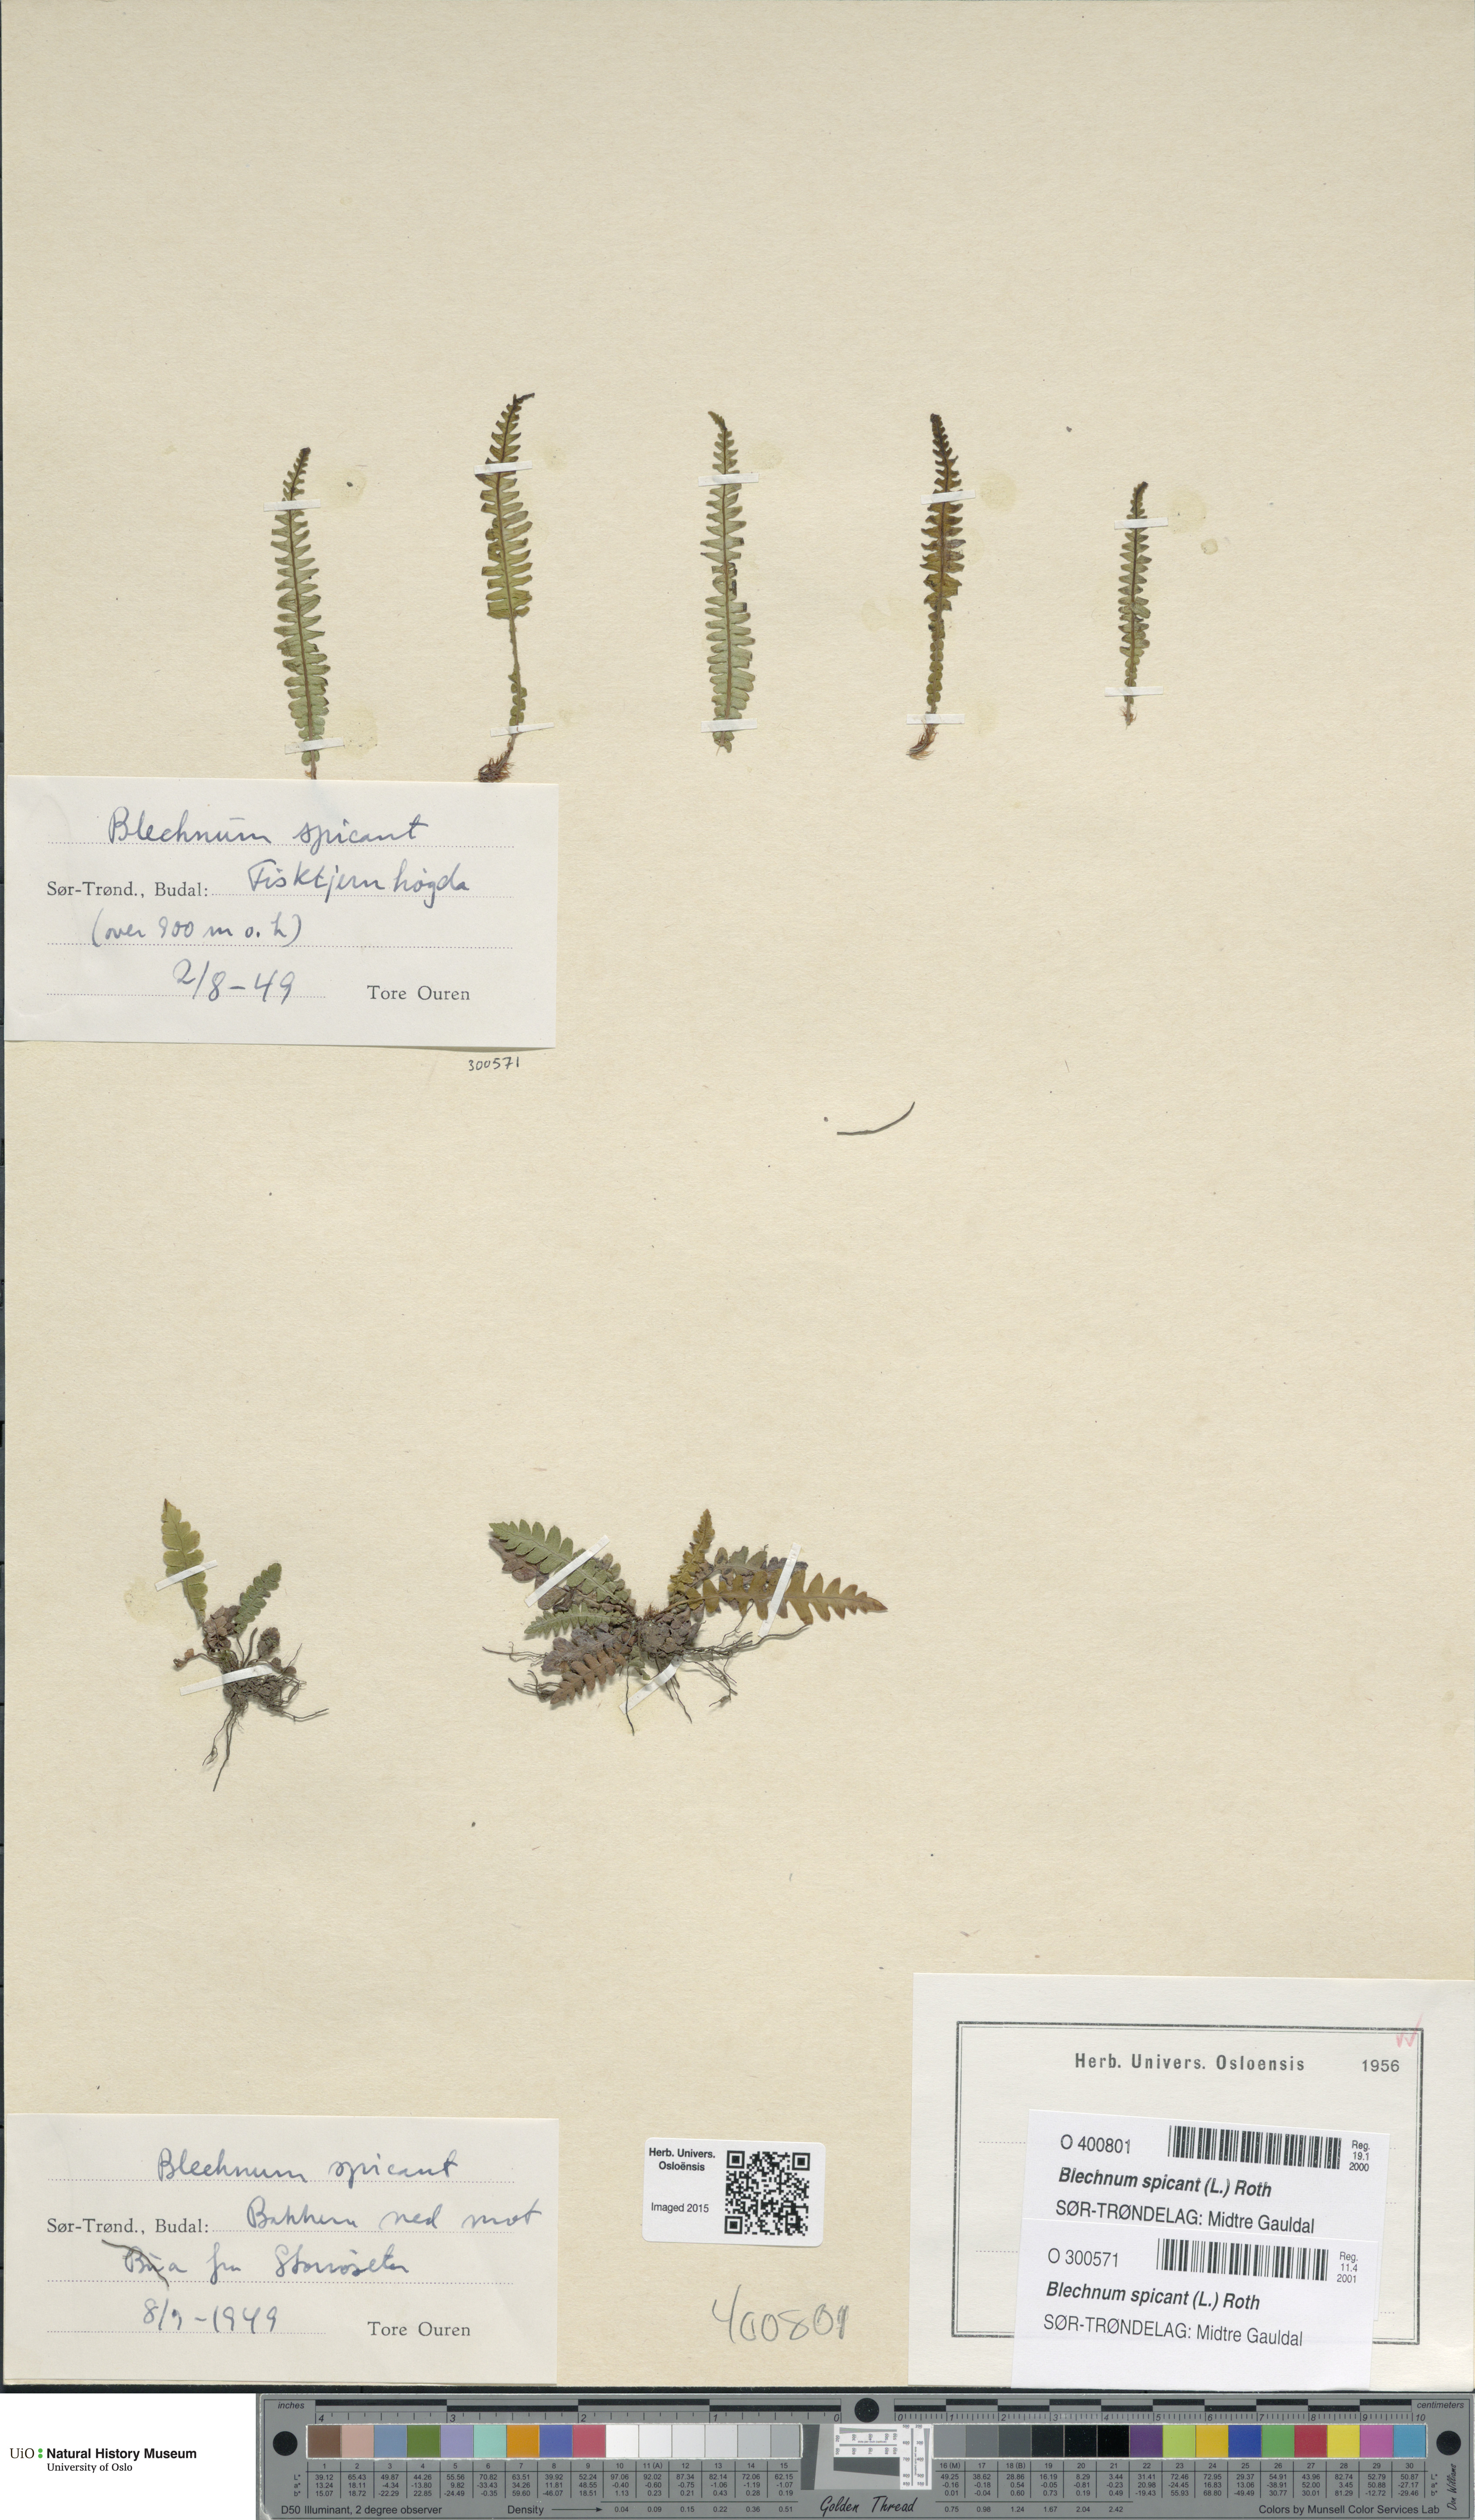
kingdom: Plantae
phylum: Tracheophyta
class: Polypodiopsida
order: Polypodiales
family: Blechnaceae
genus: Struthiopteris
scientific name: Struthiopteris spicant
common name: Deer fern
